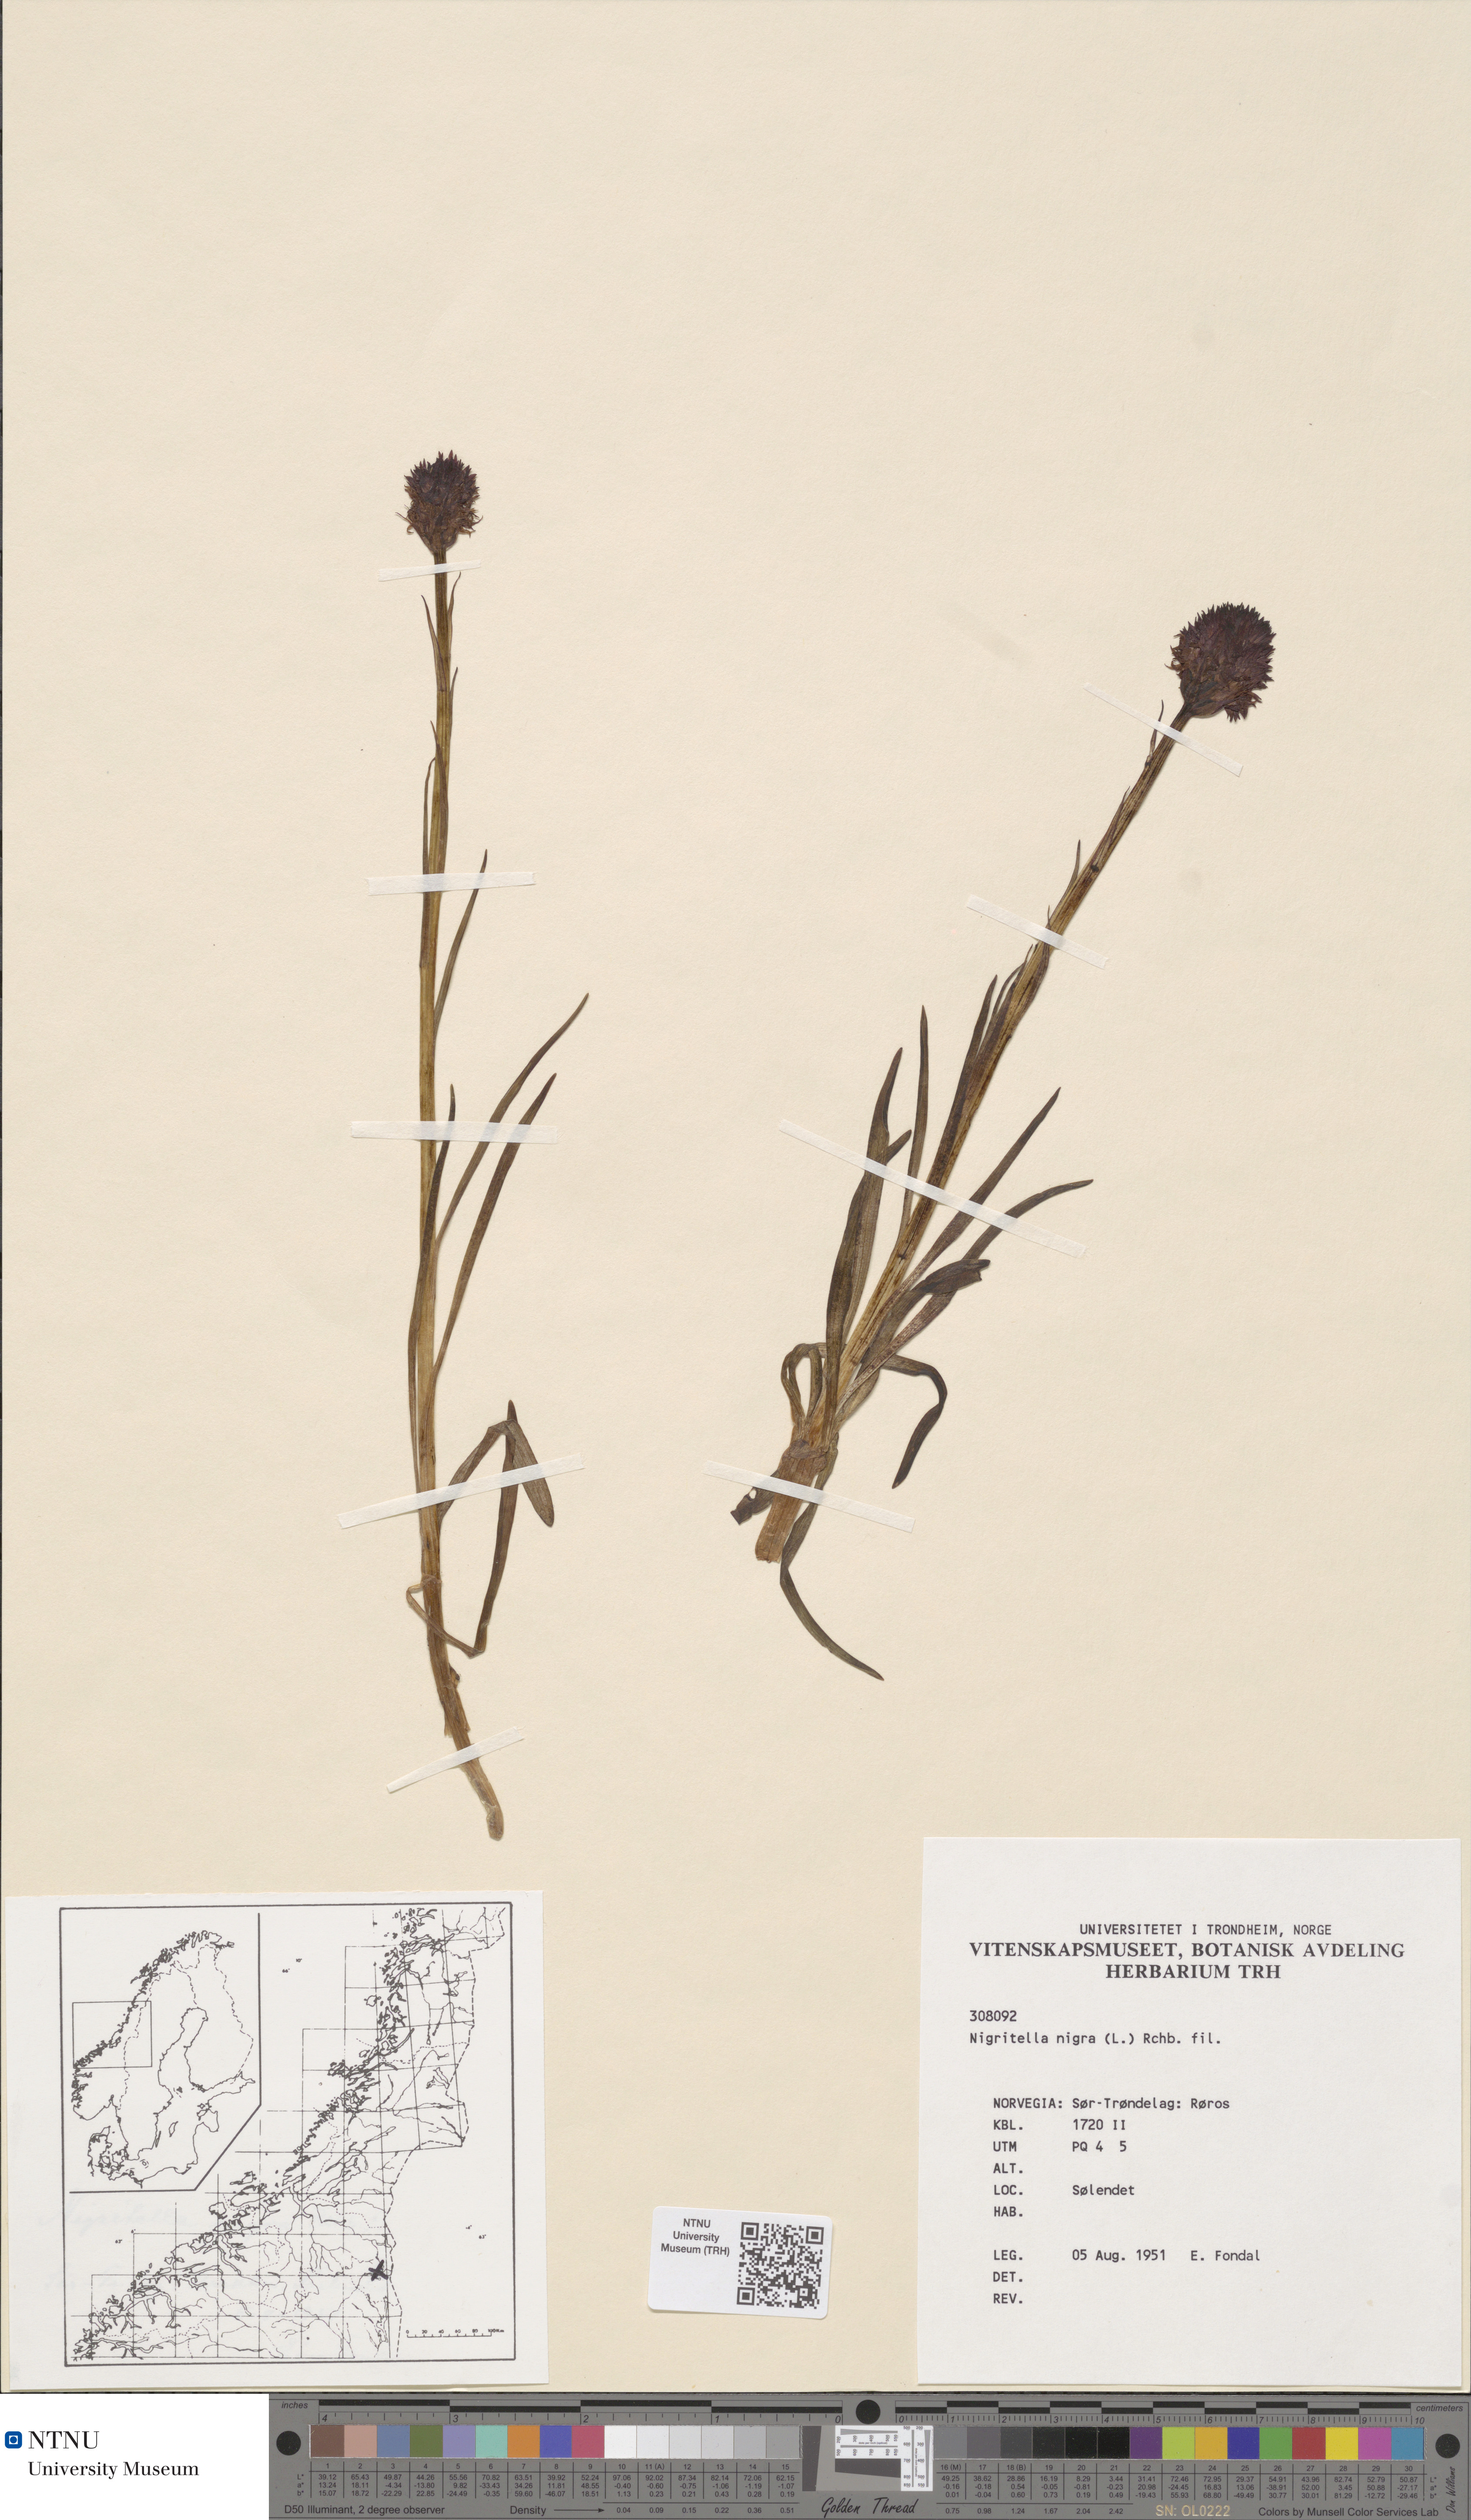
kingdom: Plantae
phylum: Tracheophyta
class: Liliopsida
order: Asparagales
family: Orchidaceae
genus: Gymnadenia
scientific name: Gymnadenia nigra
